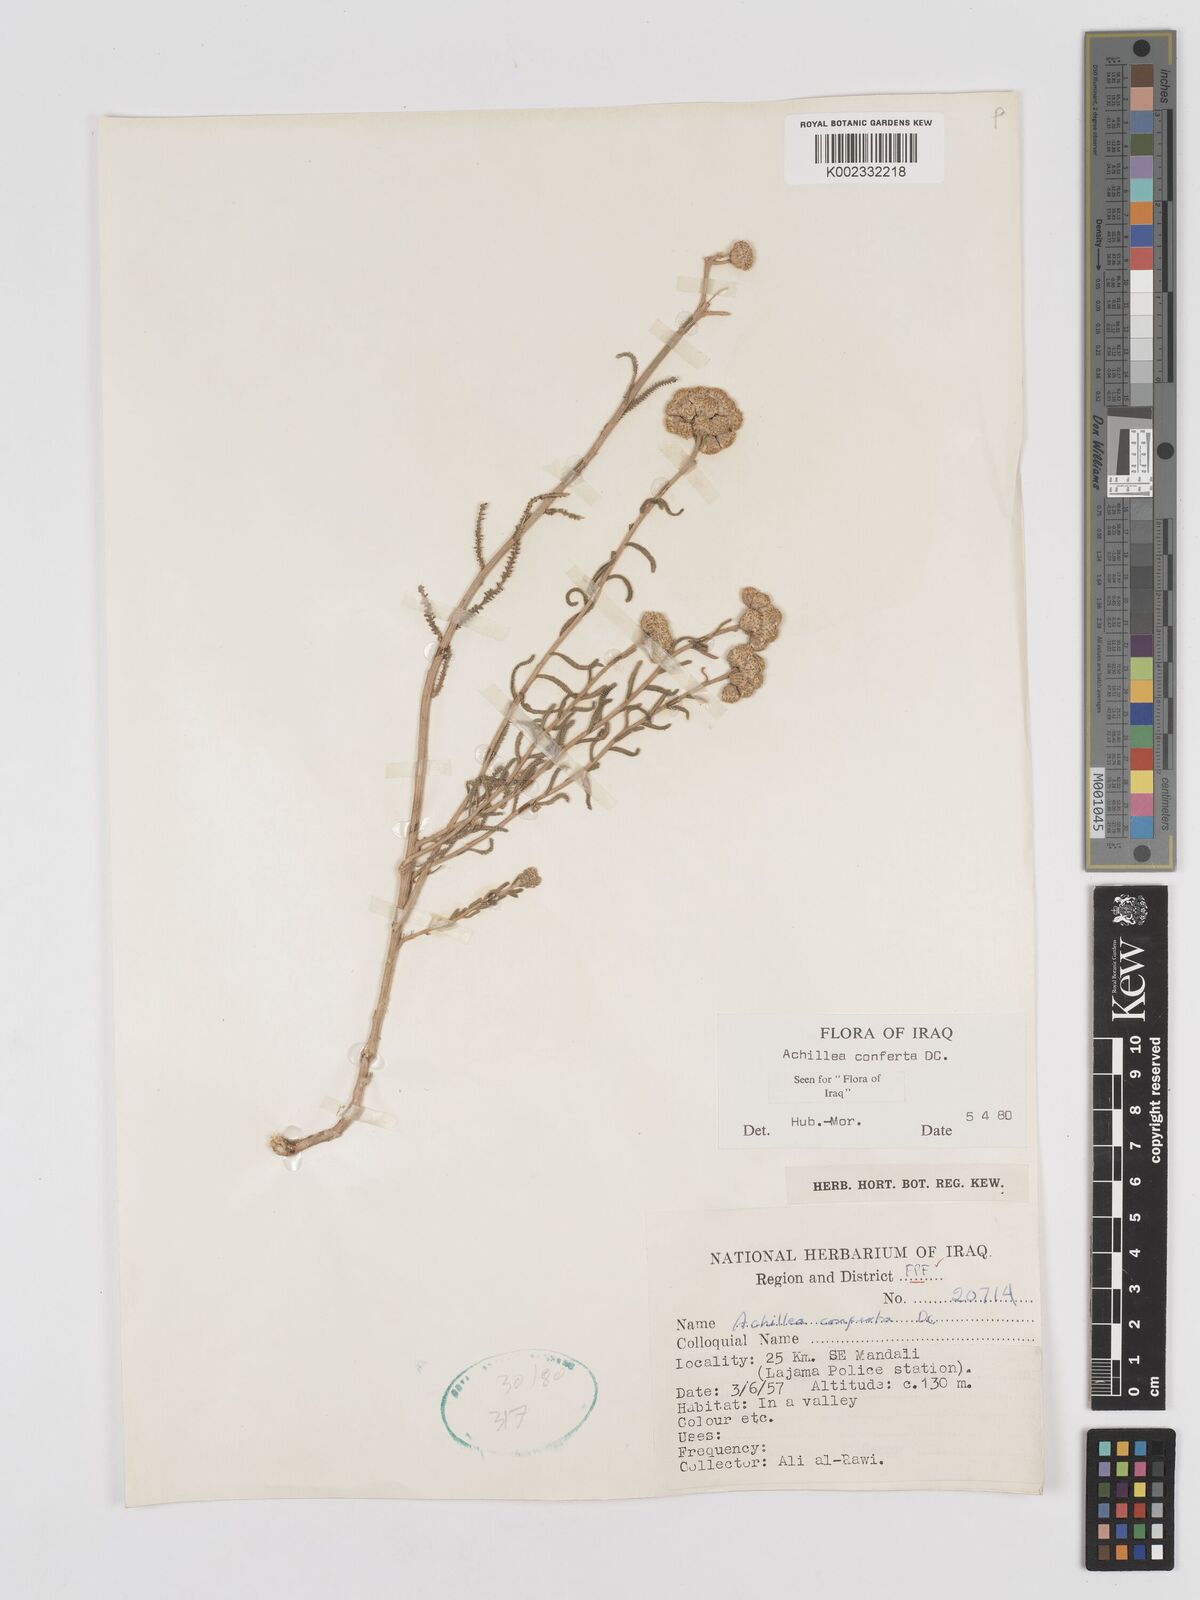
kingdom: Plantae
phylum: Tracheophyta
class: Magnoliopsida
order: Asterales
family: Asteraceae
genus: Achillea
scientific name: Achillea conferta
